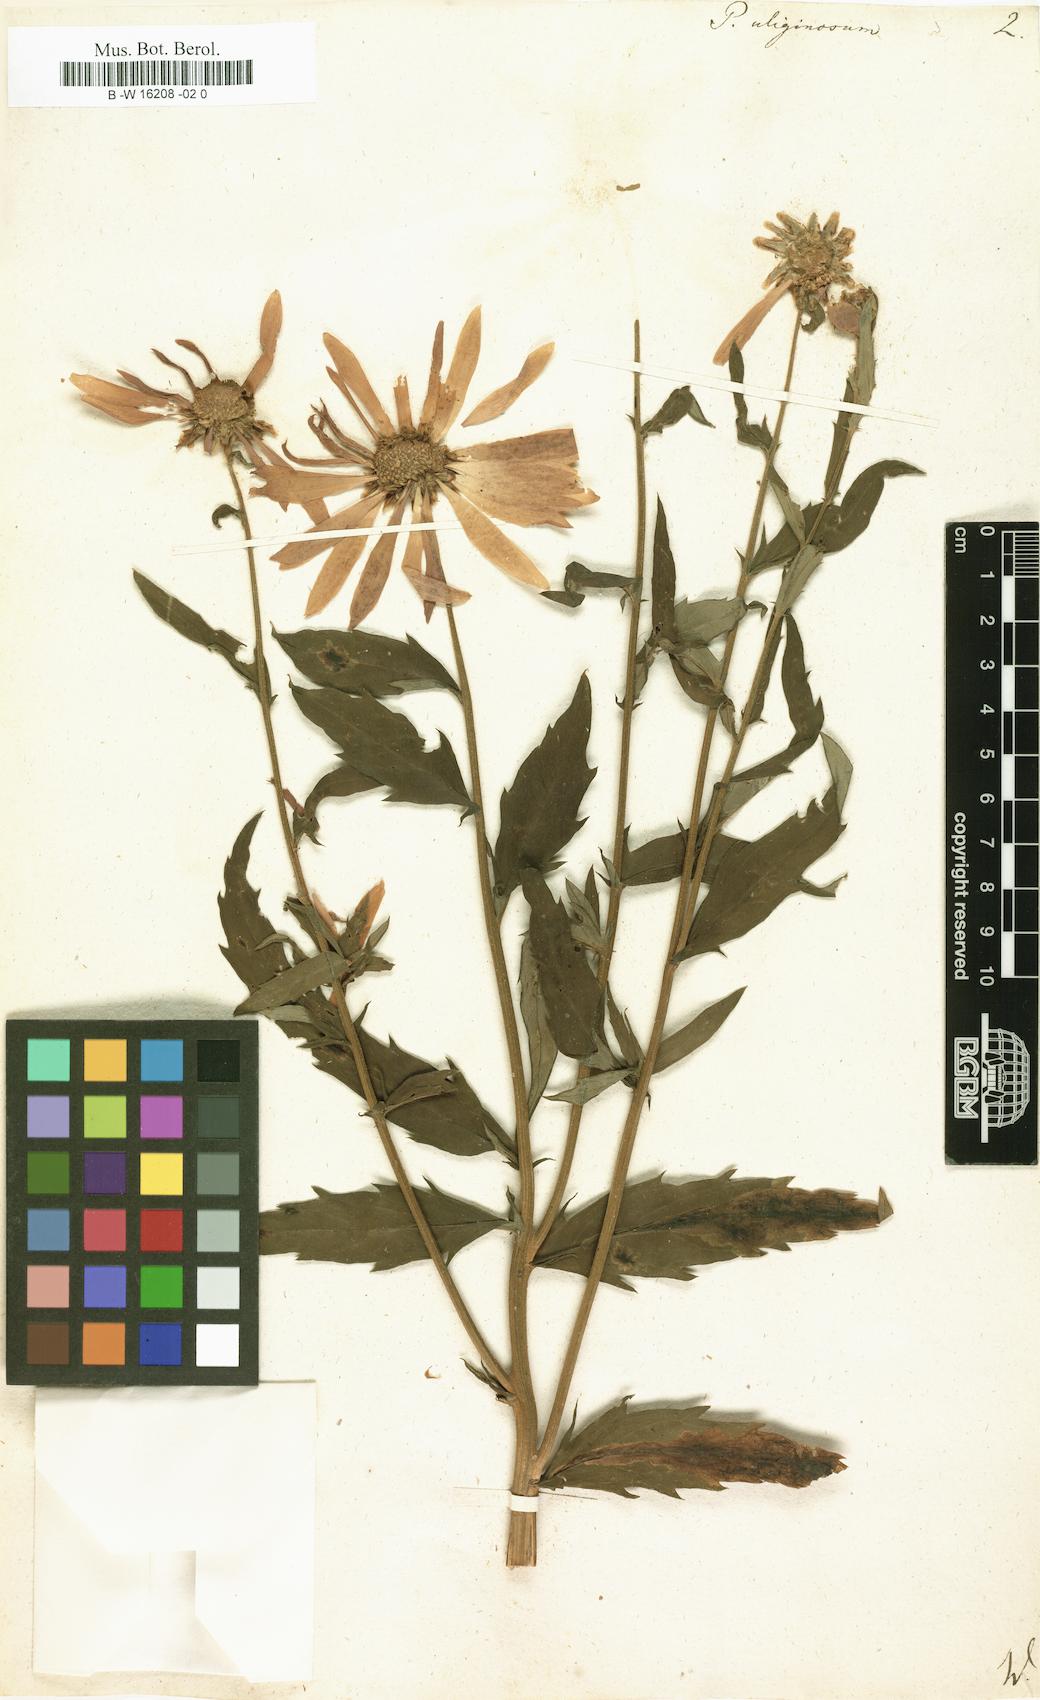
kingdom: Plantae
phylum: Tracheophyta
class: Magnoliopsida
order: Asterales
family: Asteraceae
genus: Leucanthemella
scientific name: Leucanthemella serotina
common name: Autumn oxeye
